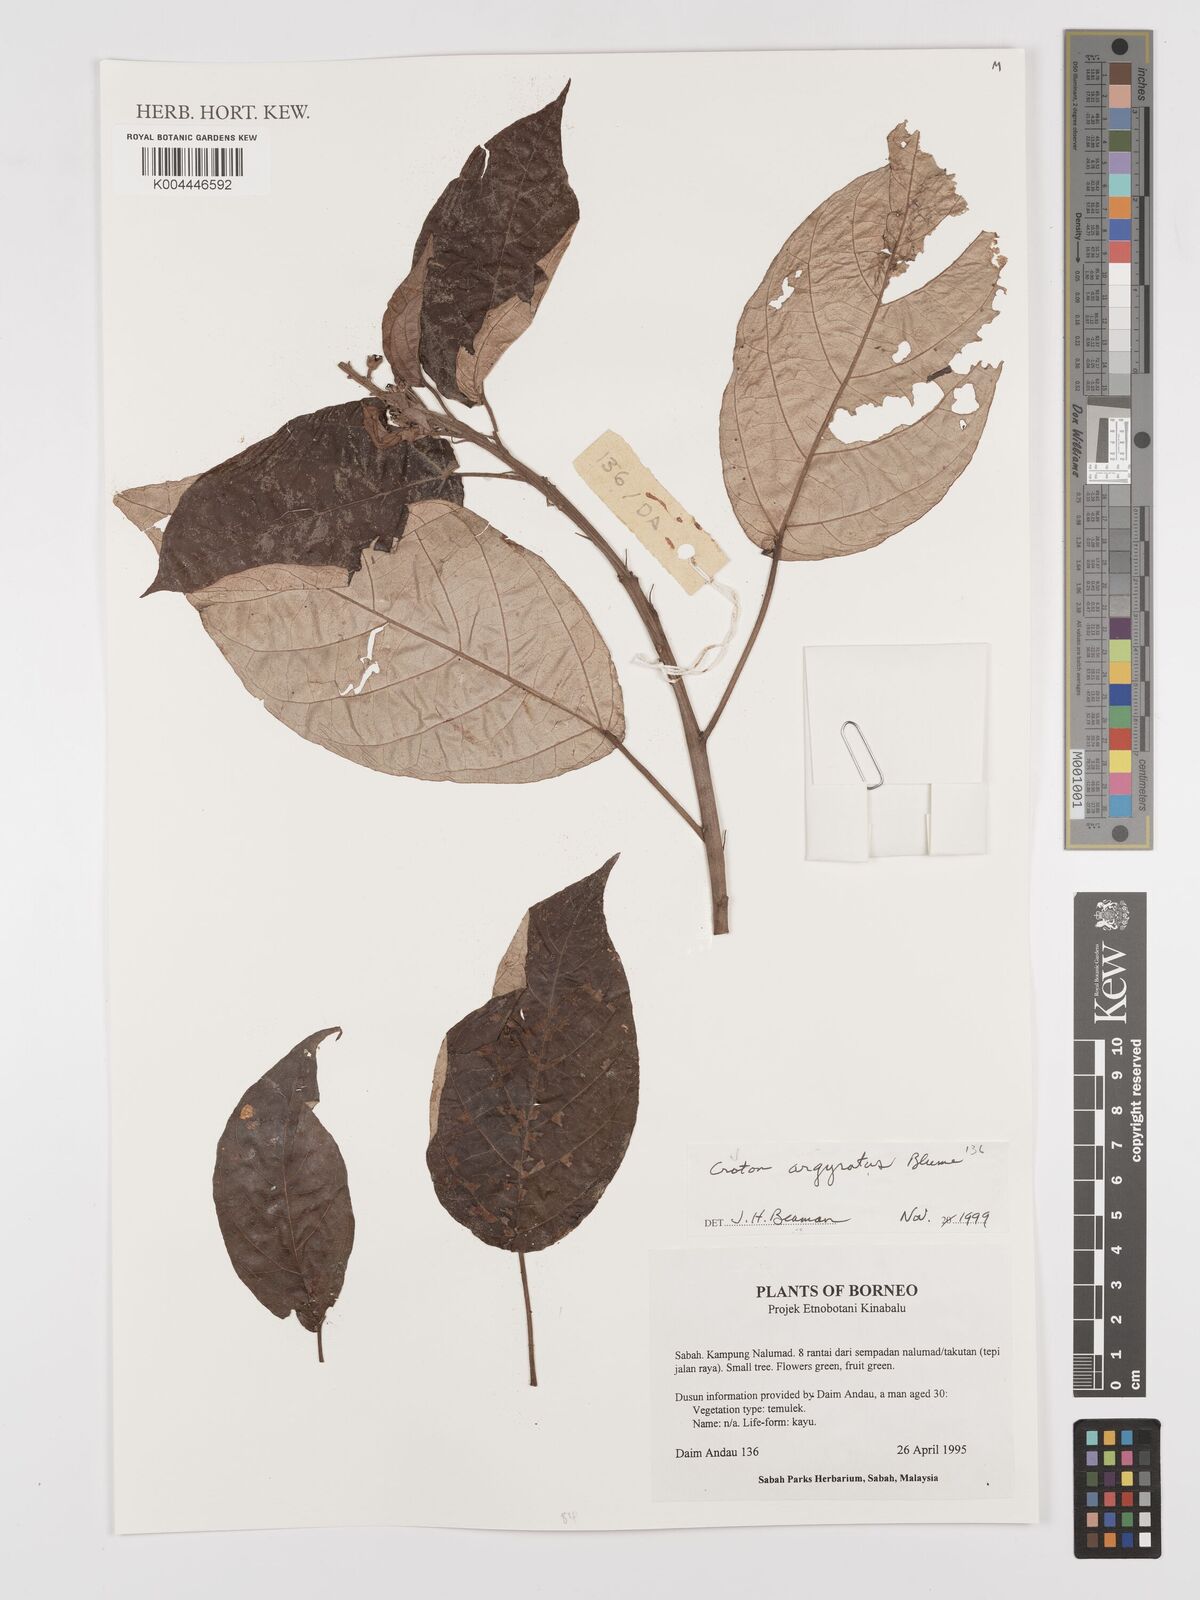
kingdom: Plantae
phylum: Tracheophyta
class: Magnoliopsida
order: Malpighiales
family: Euphorbiaceae
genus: Croton
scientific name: Croton argyratus
